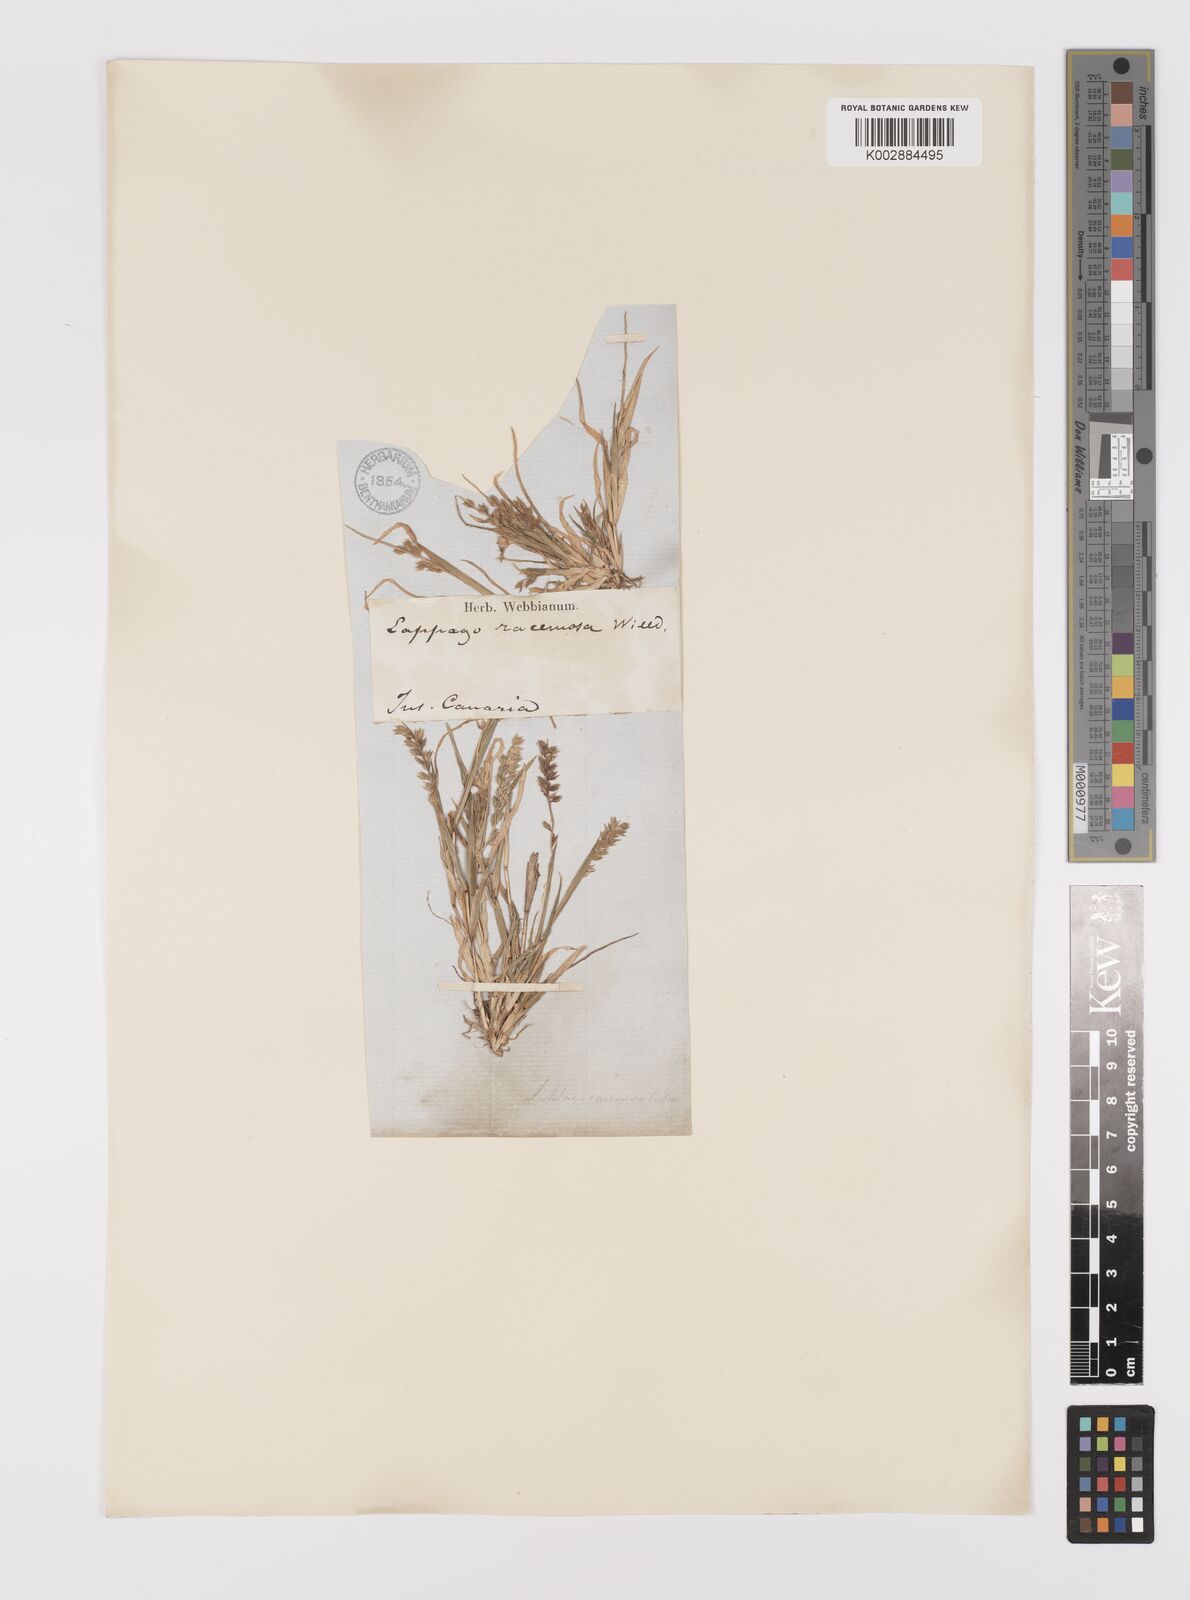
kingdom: Plantae
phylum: Tracheophyta
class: Liliopsida
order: Poales
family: Poaceae
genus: Tragus
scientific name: Tragus racemosus
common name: European bur-grass
